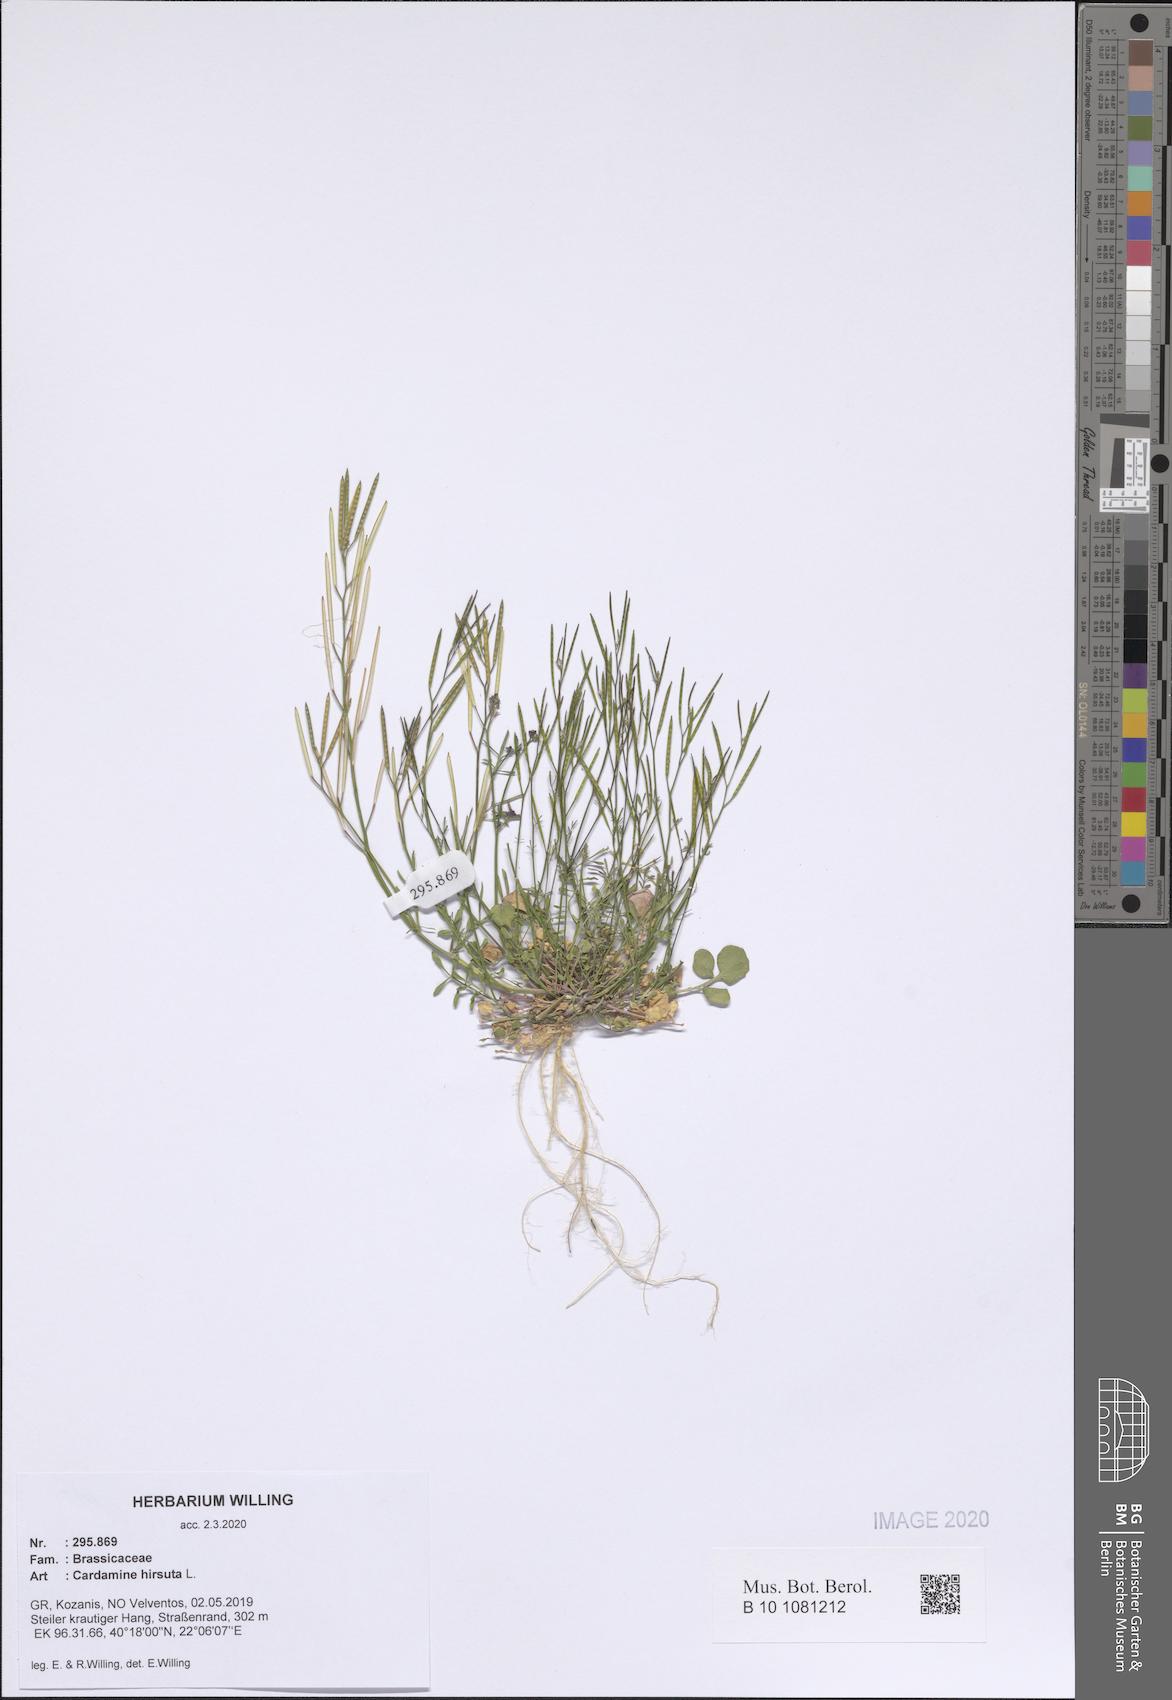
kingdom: Plantae
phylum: Tracheophyta
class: Magnoliopsida
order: Brassicales
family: Brassicaceae
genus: Cardamine
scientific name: Cardamine hirsuta
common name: Hairy bittercress
